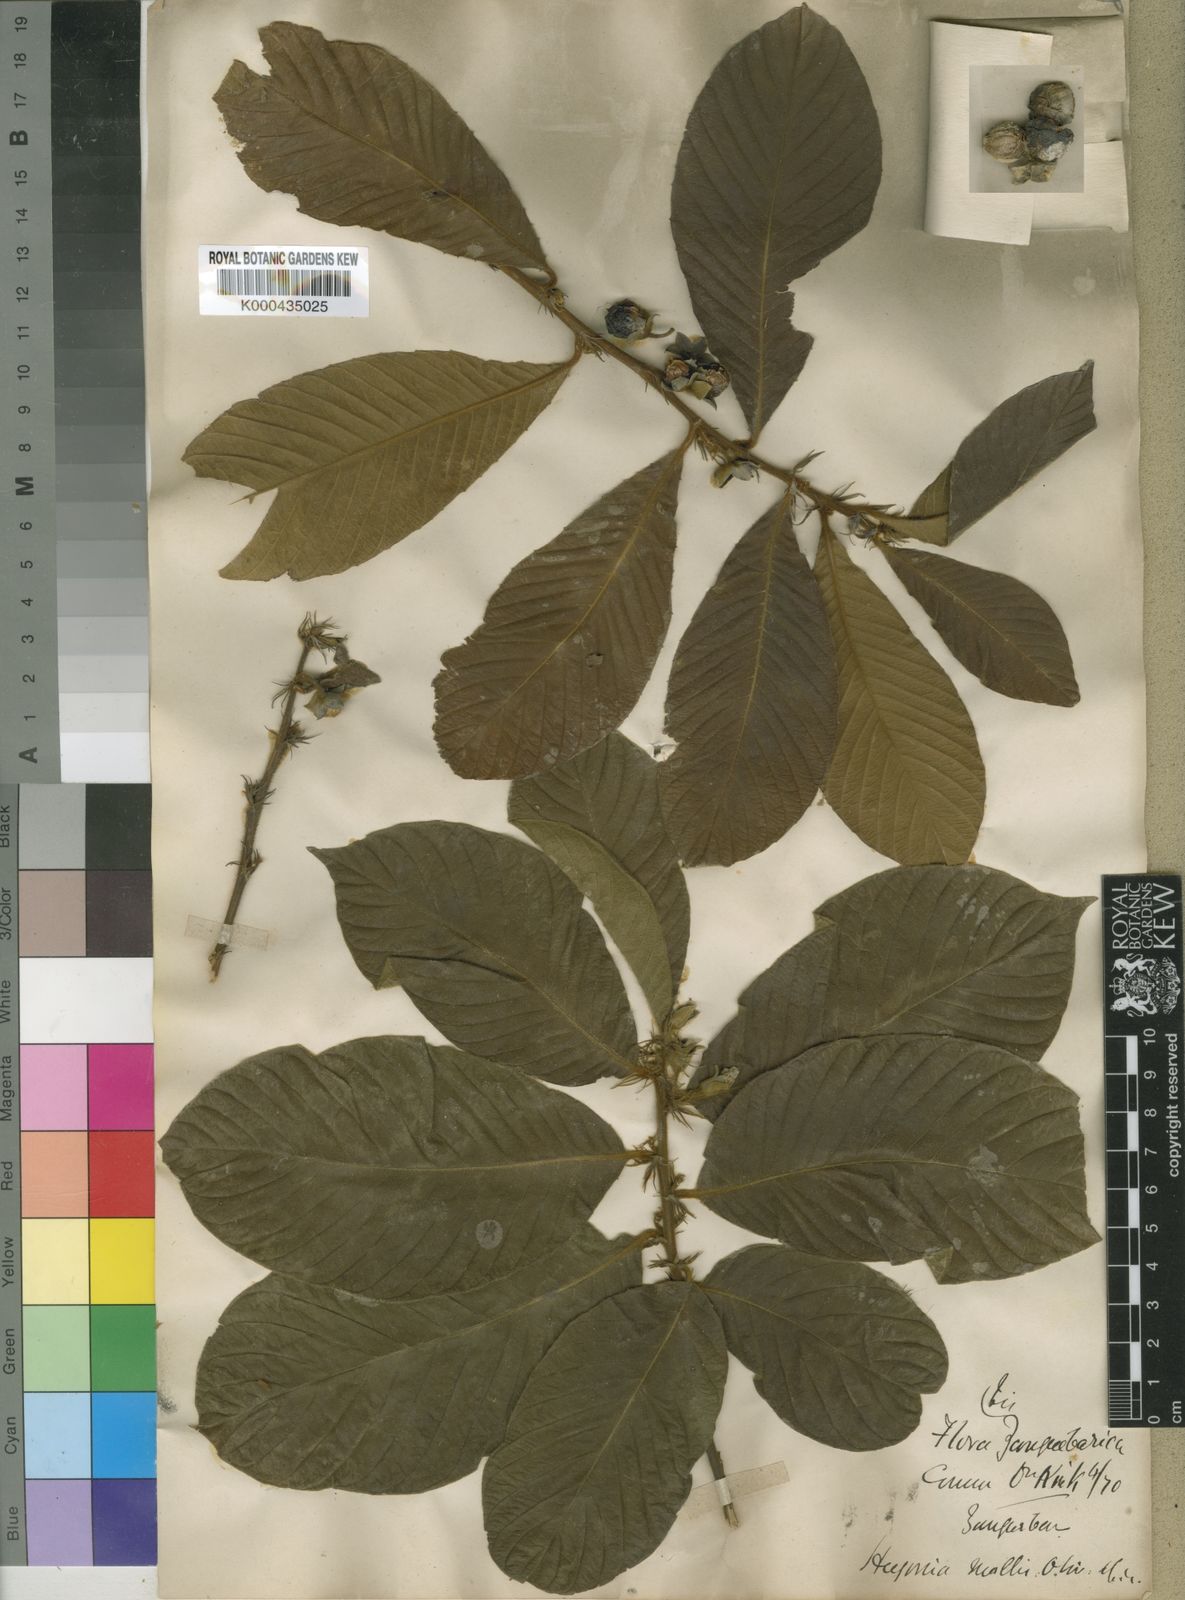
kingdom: Plantae
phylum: Tracheophyta
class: Magnoliopsida
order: Malpighiales
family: Linaceae
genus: Hugonia
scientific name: Hugonia castaneifolia
